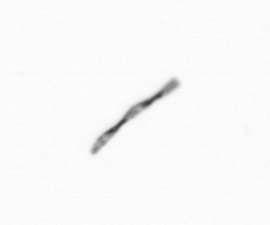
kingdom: Chromista
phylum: Ochrophyta
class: Bacillariophyceae
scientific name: Bacillariophyceae
